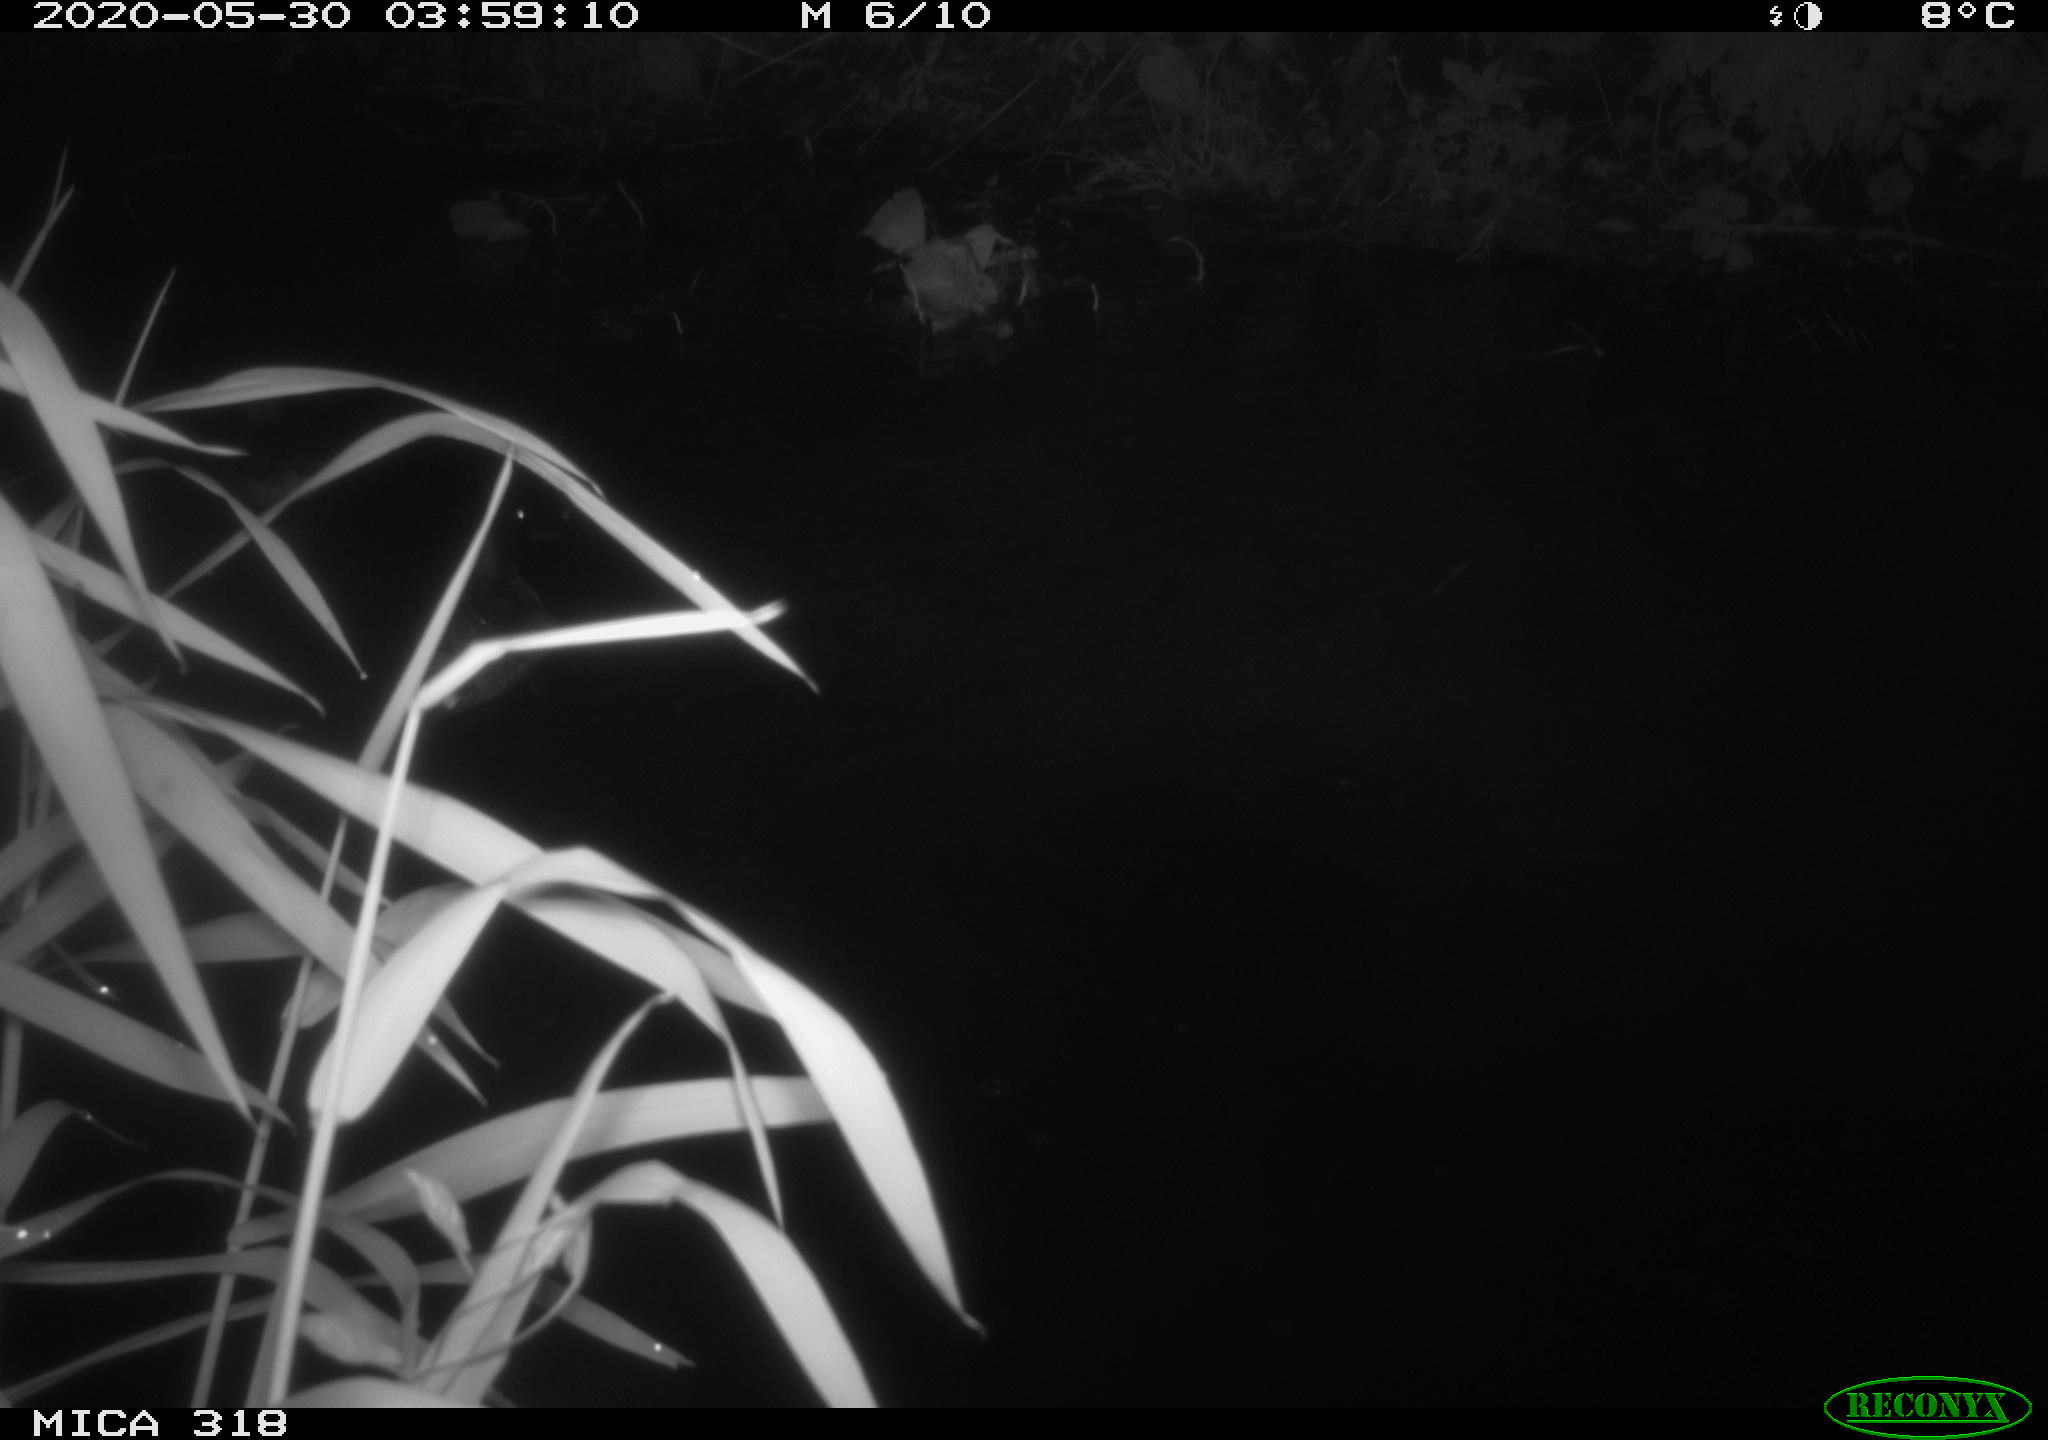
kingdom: Animalia
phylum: Chordata
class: Aves
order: Anseriformes
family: Anatidae
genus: Anas
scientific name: Anas platyrhynchos
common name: Mallard
